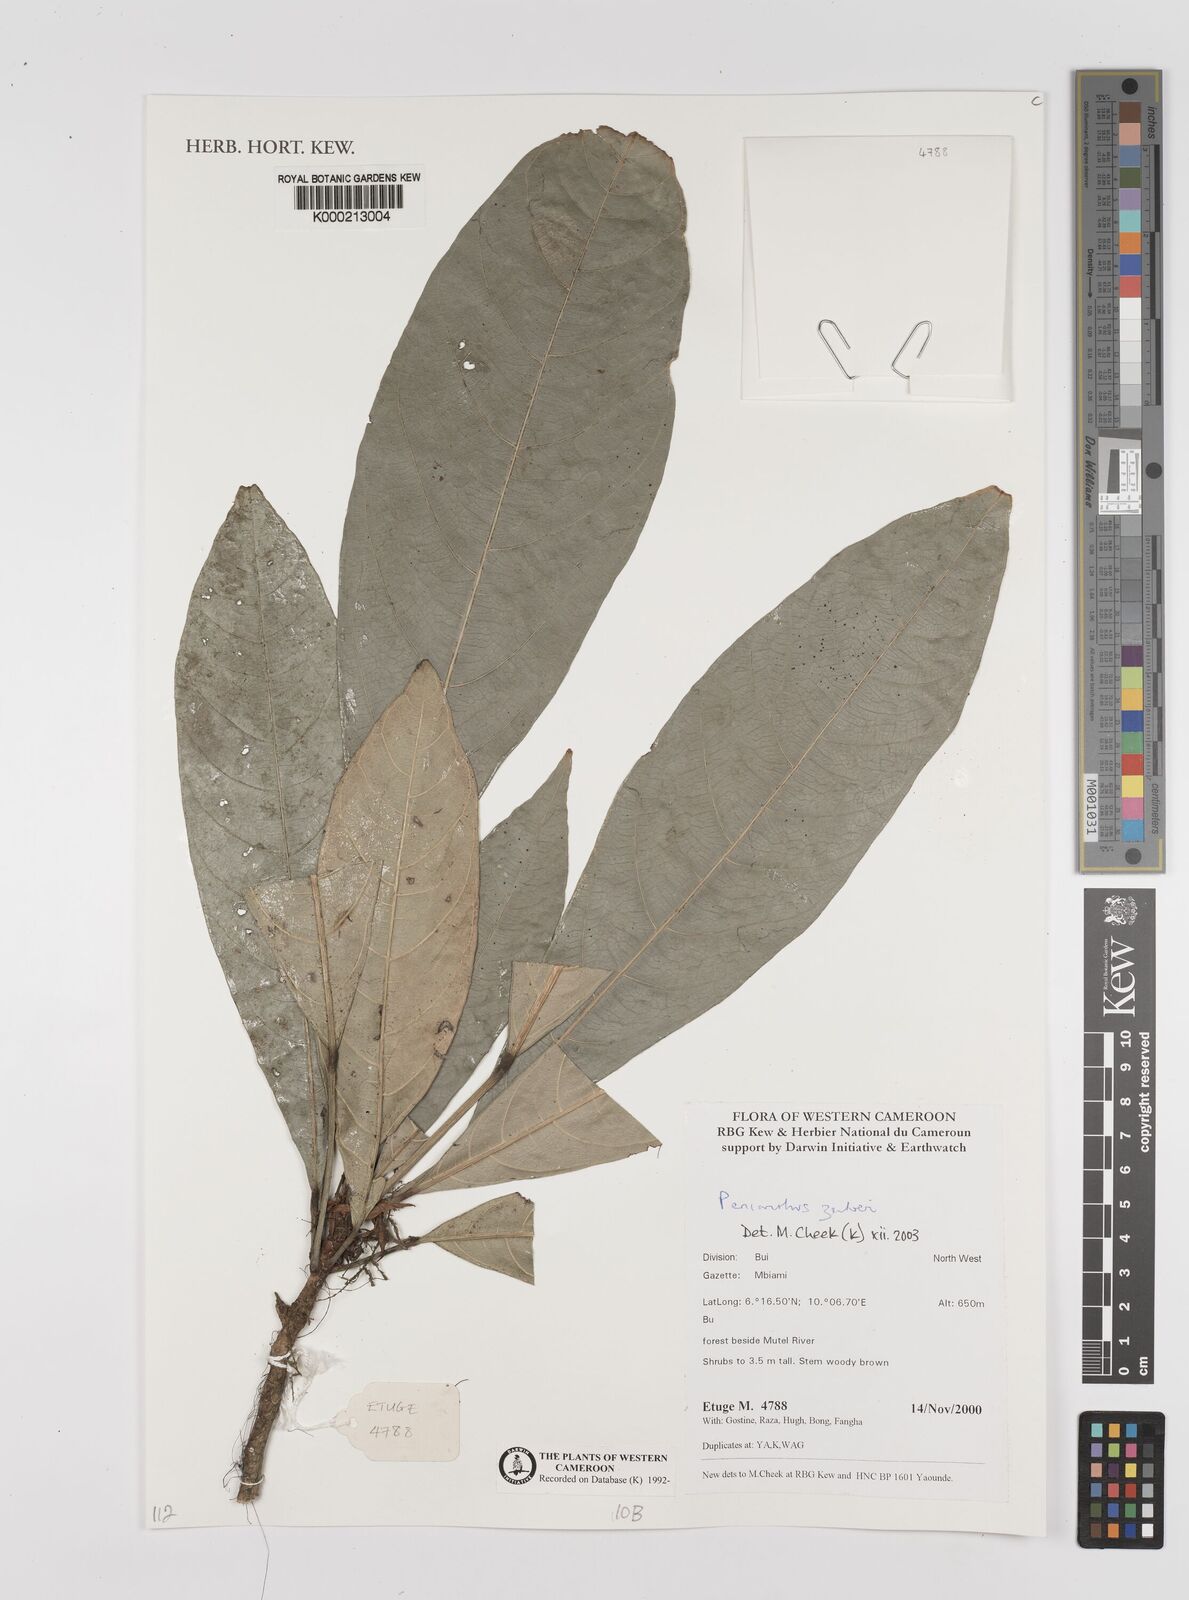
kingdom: Plantae
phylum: Tracheophyta
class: Magnoliopsida
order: Ranunculales
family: Menispermaceae
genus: Penianthus
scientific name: Penianthus zenkeri
